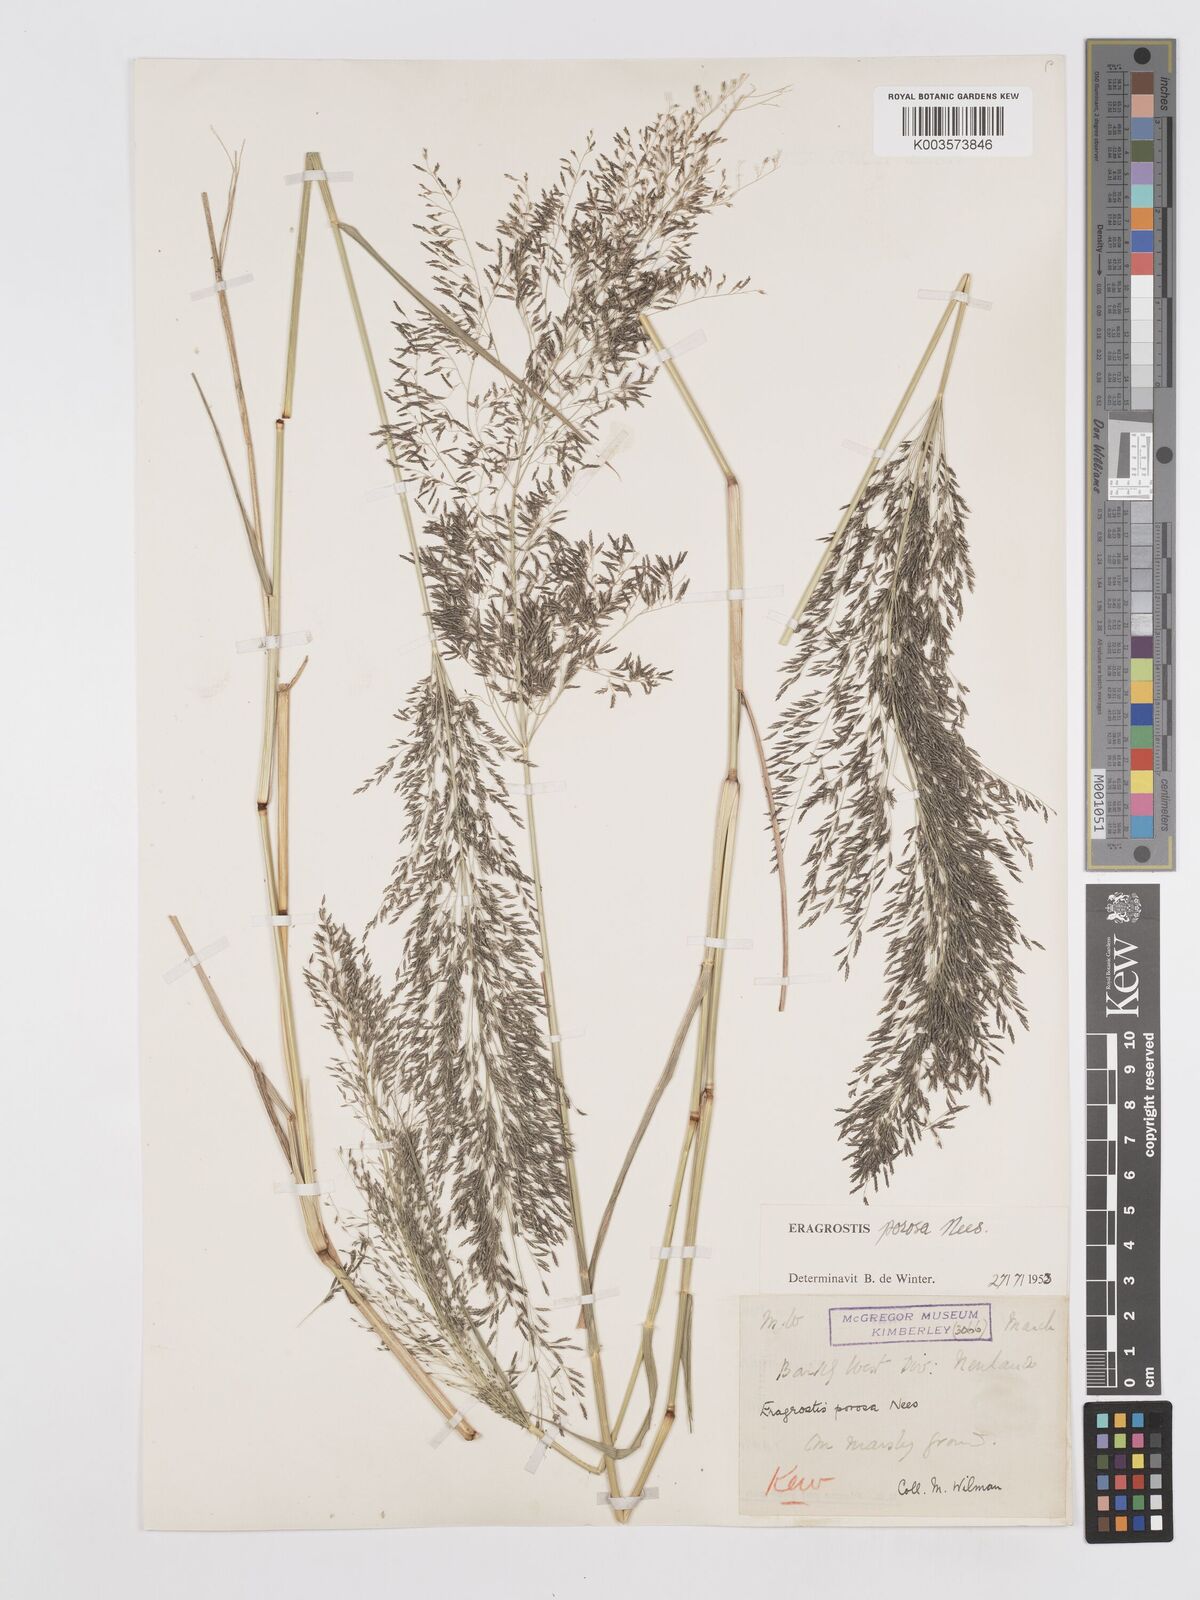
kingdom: Plantae
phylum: Tracheophyta
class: Liliopsida
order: Poales
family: Poaceae
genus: Eragrostis
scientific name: Eragrostis porosa
